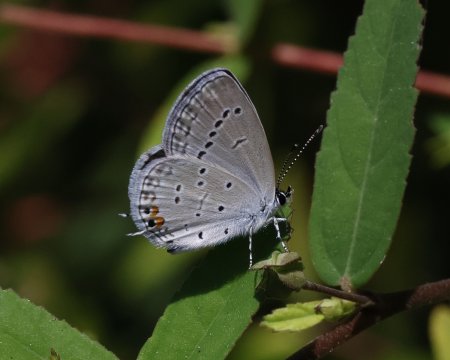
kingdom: Animalia
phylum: Arthropoda
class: Insecta
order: Lepidoptera
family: Lycaenidae
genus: Elkalyce
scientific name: Elkalyce comyntas
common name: Eastern Tailed-Blue
